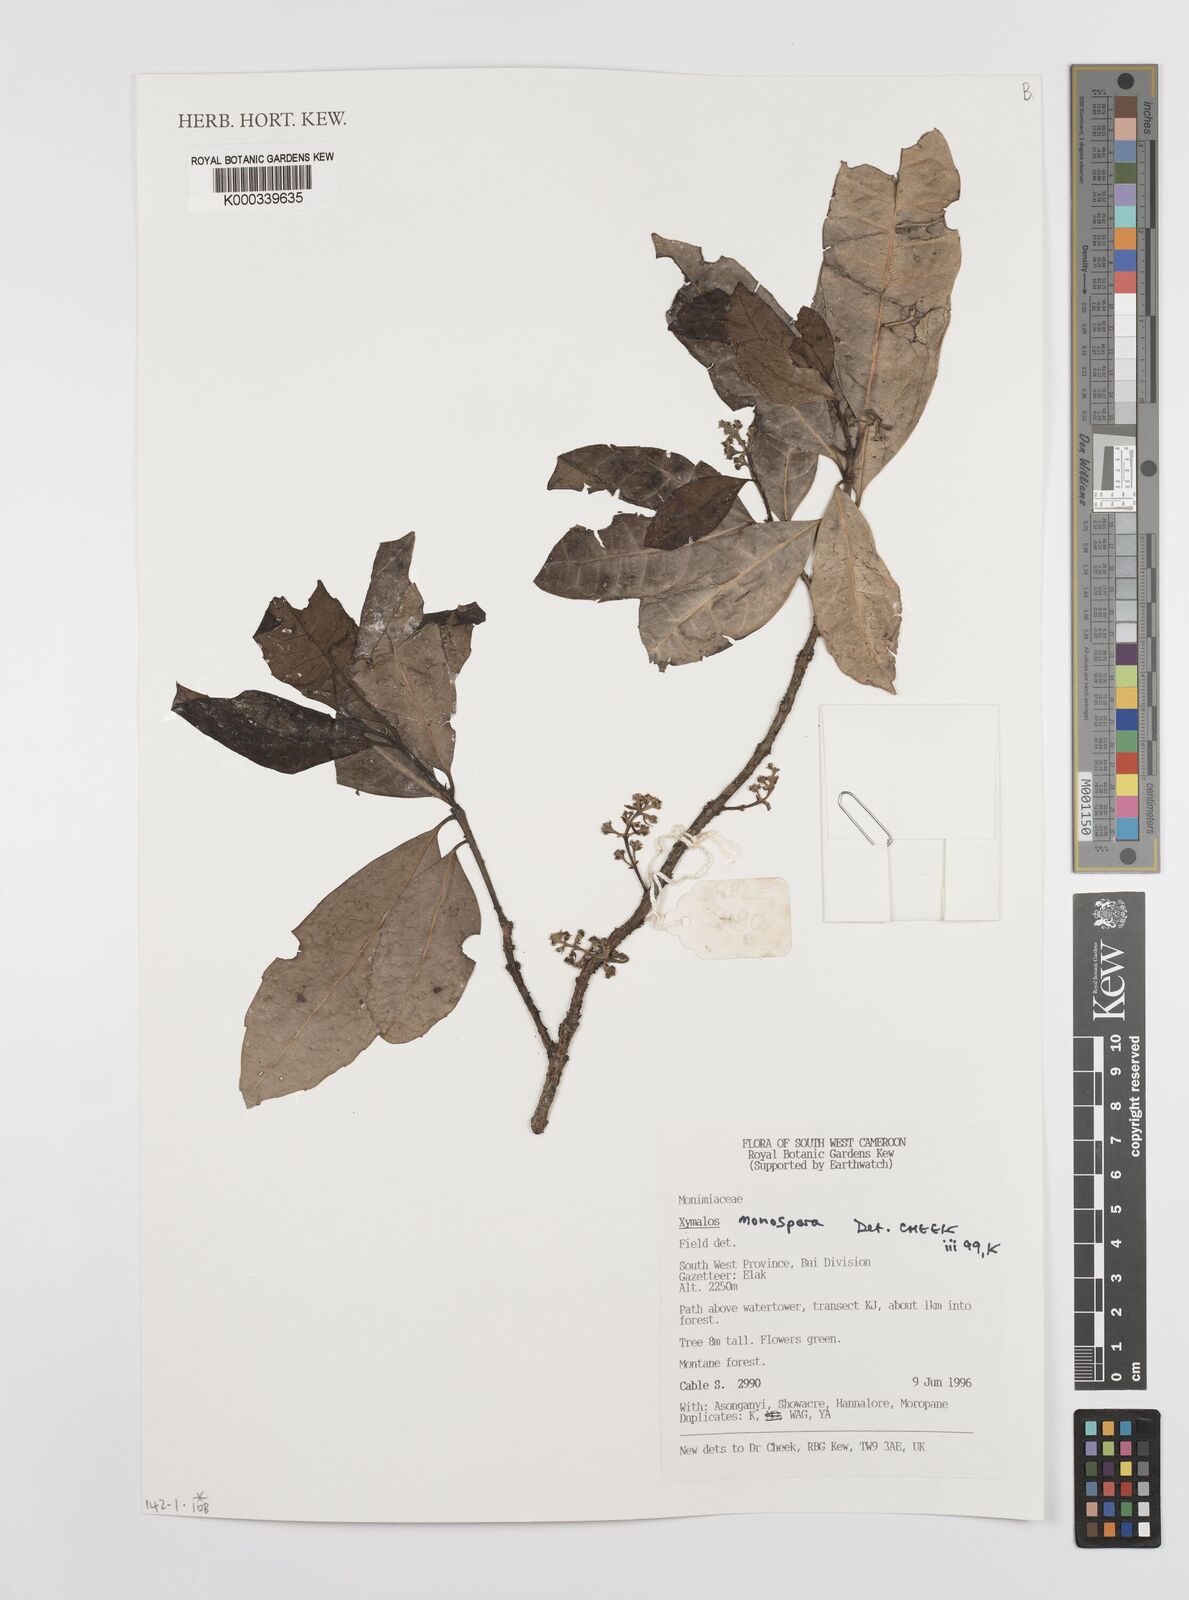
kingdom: Plantae
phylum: Tracheophyta
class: Magnoliopsida
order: Laurales
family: Monimiaceae
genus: Xymalos
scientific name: Xymalos
